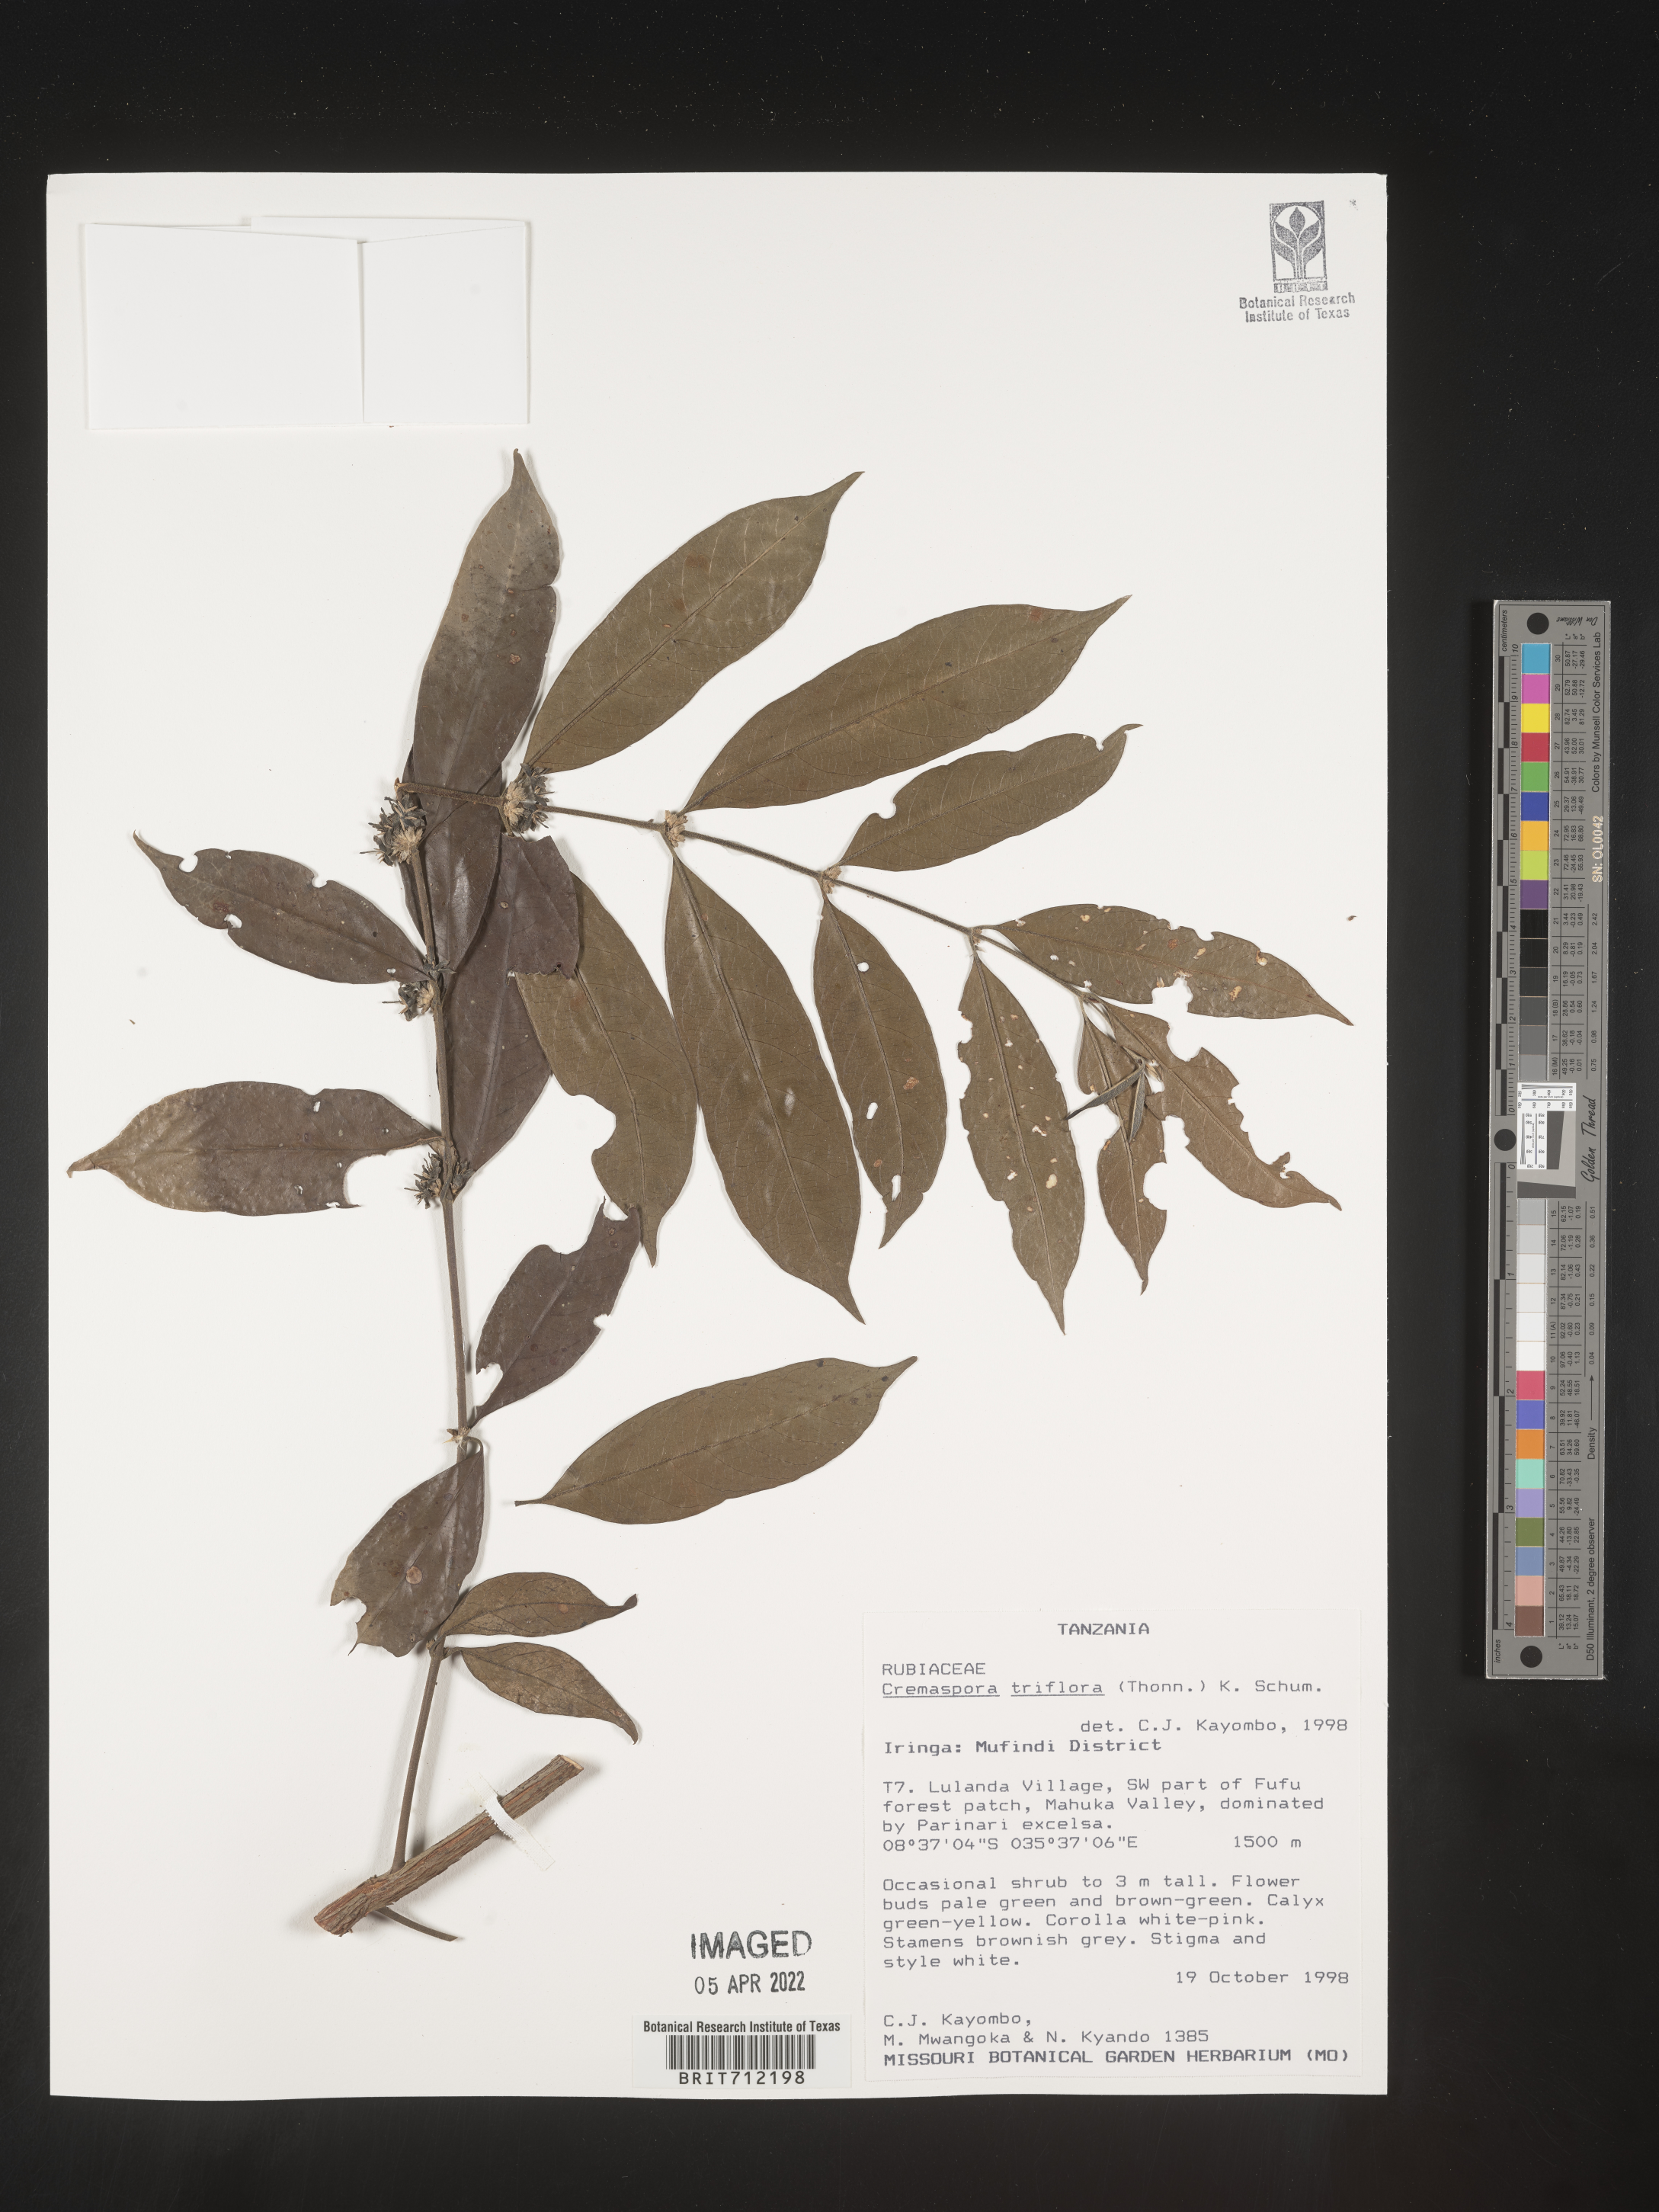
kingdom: Plantae
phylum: Tracheophyta
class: Magnoliopsida
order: Gentianales
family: Rubiaceae
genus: Cremaspora
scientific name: Cremaspora
